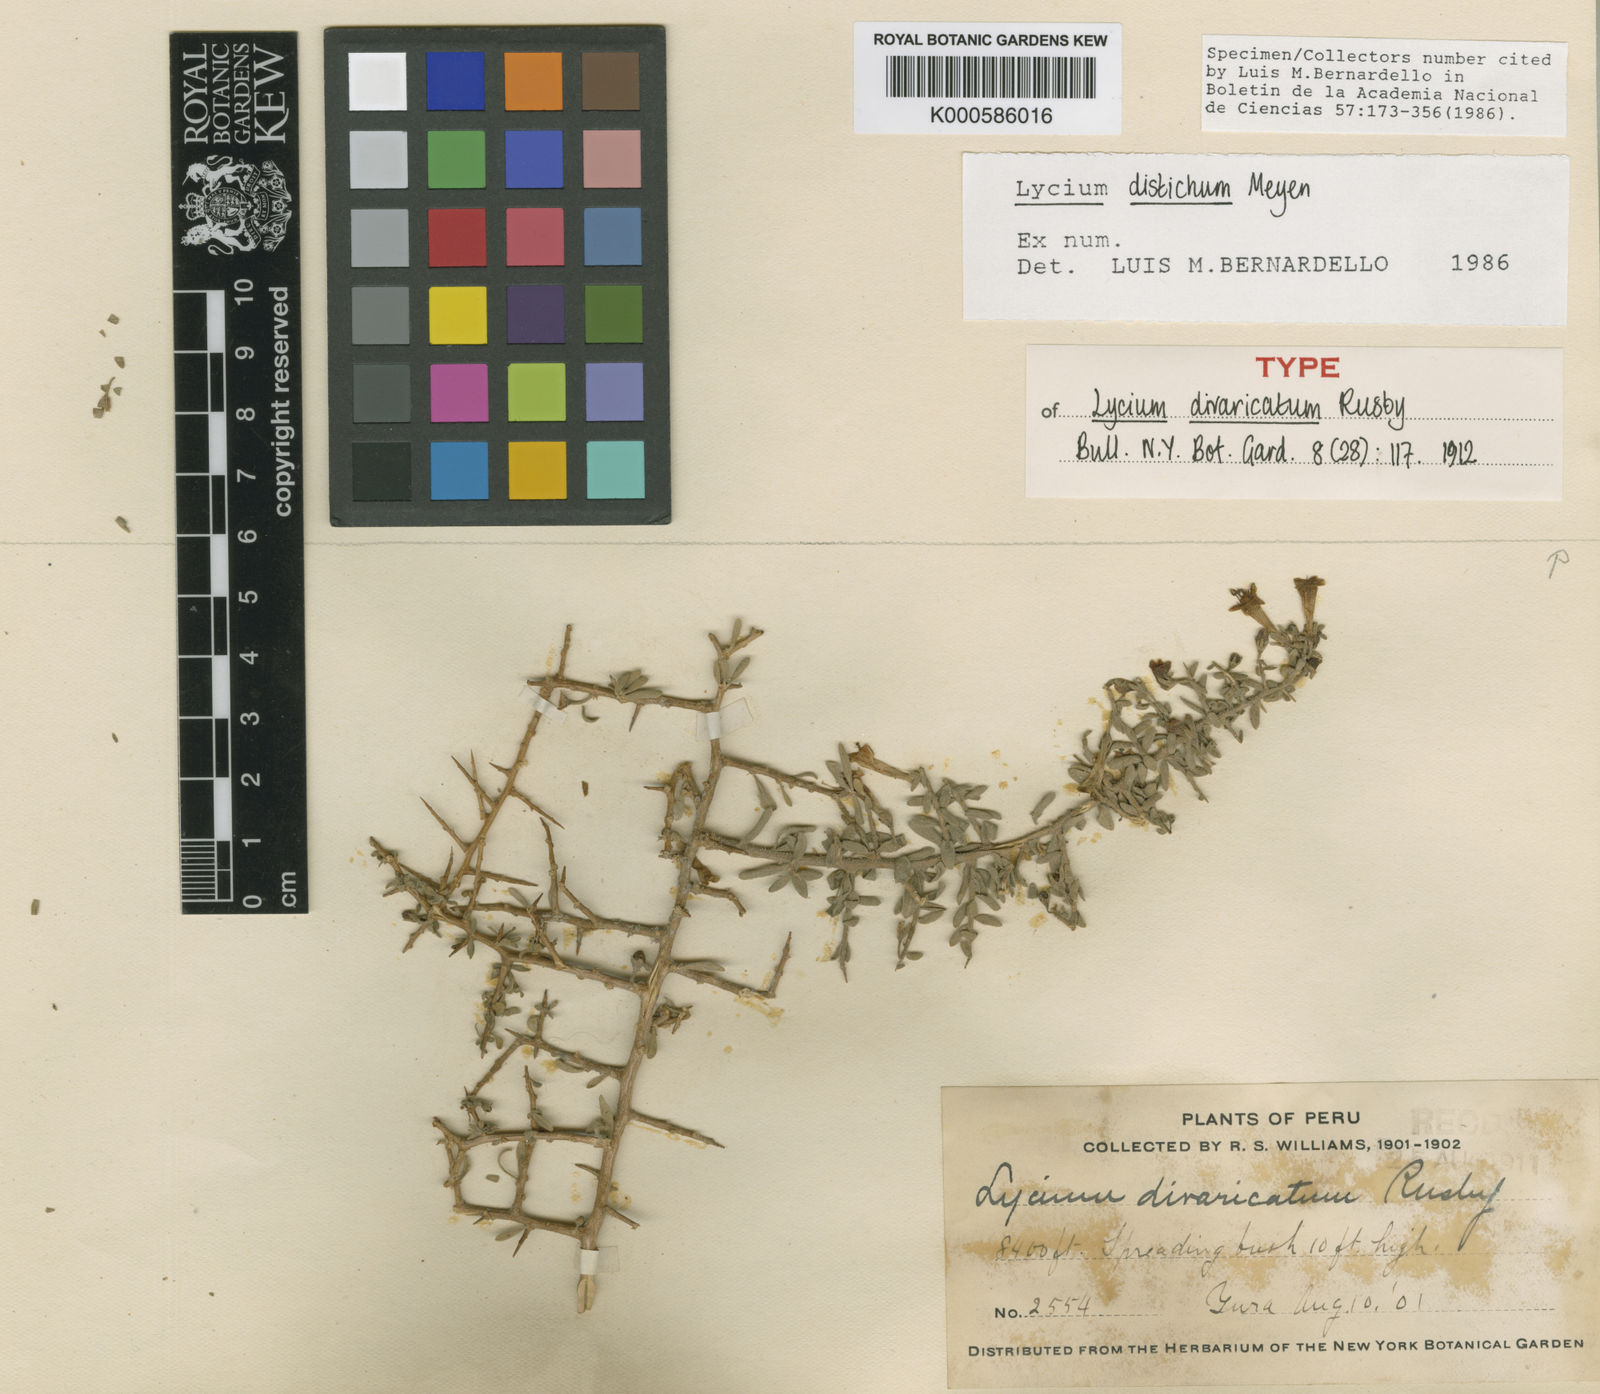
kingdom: Plantae
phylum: Tracheophyta
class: Magnoliopsida
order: Solanales
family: Solanaceae
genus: Lycium
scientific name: Lycium distichum
